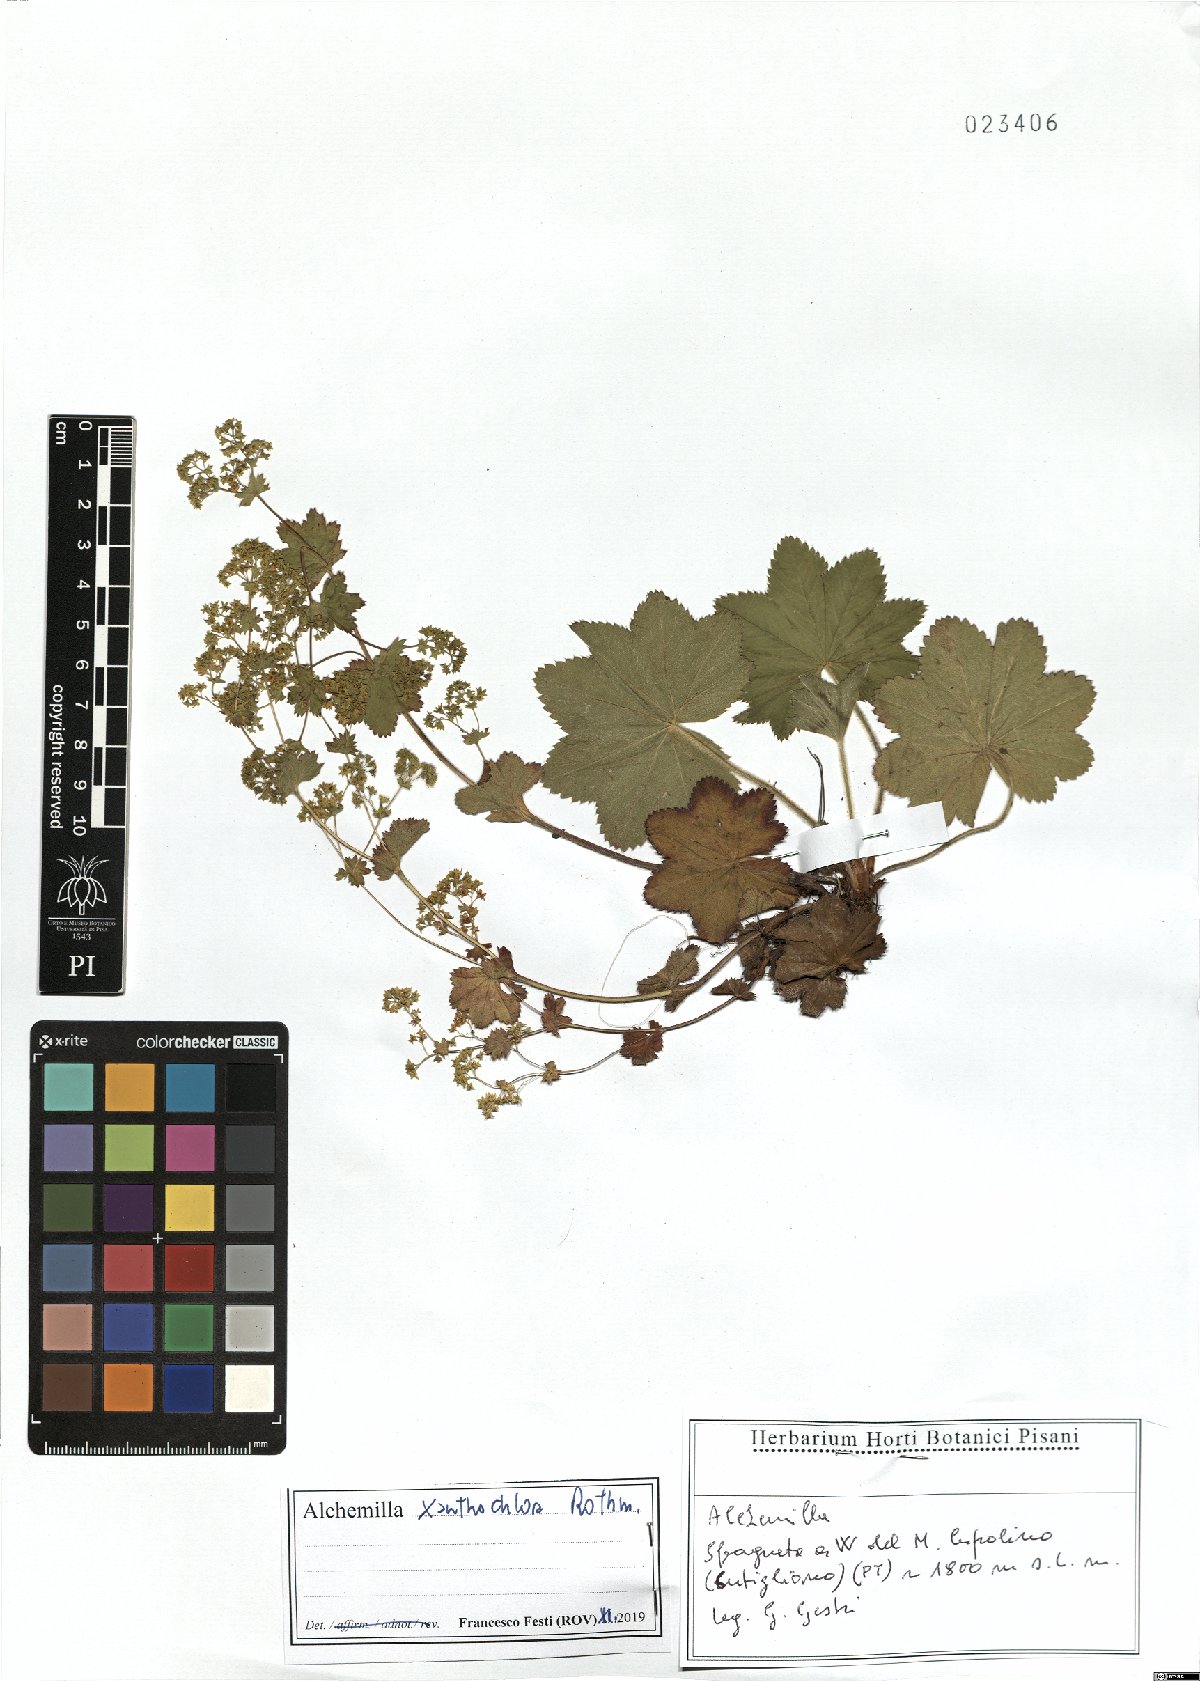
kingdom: Plantae
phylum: Tracheophyta
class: Magnoliopsida
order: Rosales
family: Rosaceae
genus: Alchemilla
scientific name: Alchemilla xanthochlora
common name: Intermediate lady's-mantle
